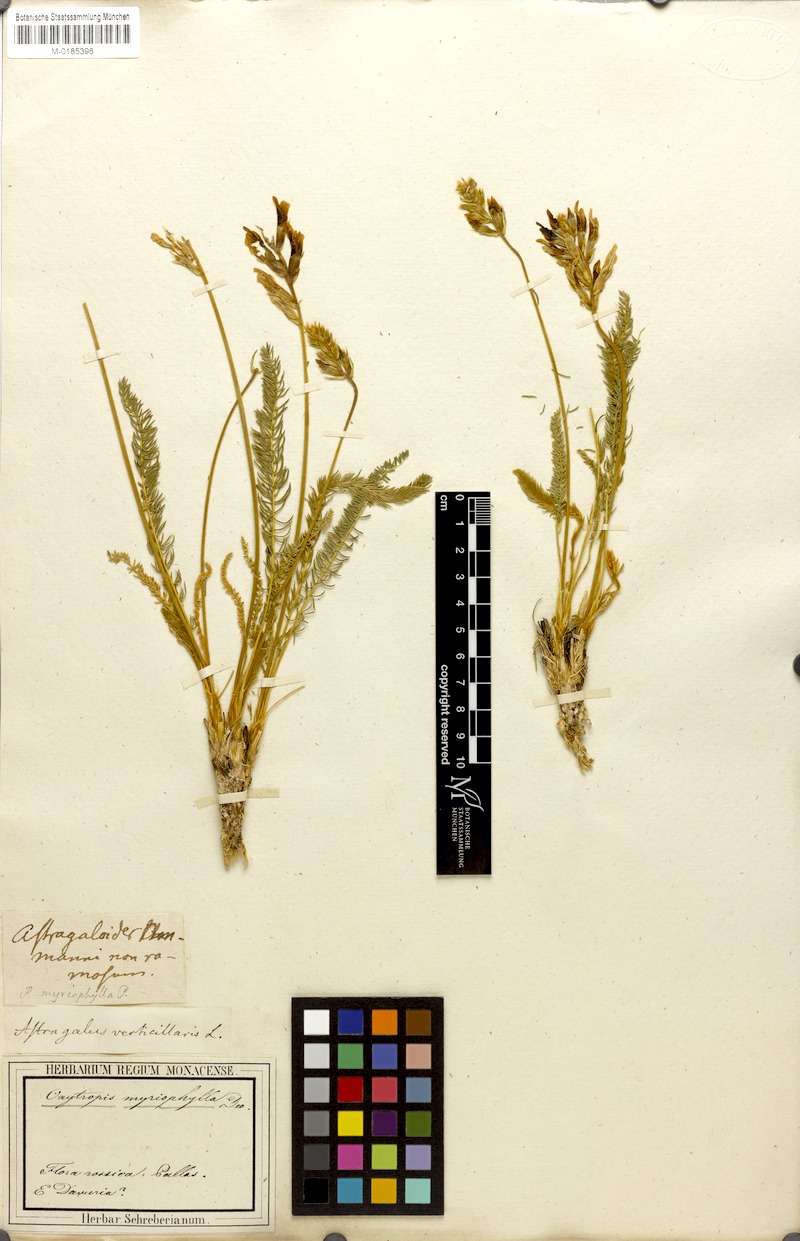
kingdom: Plantae
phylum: Tracheophyta
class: Magnoliopsida
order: Fabales
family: Fabaceae
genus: Oxytropis
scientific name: Oxytropis myriophylla
